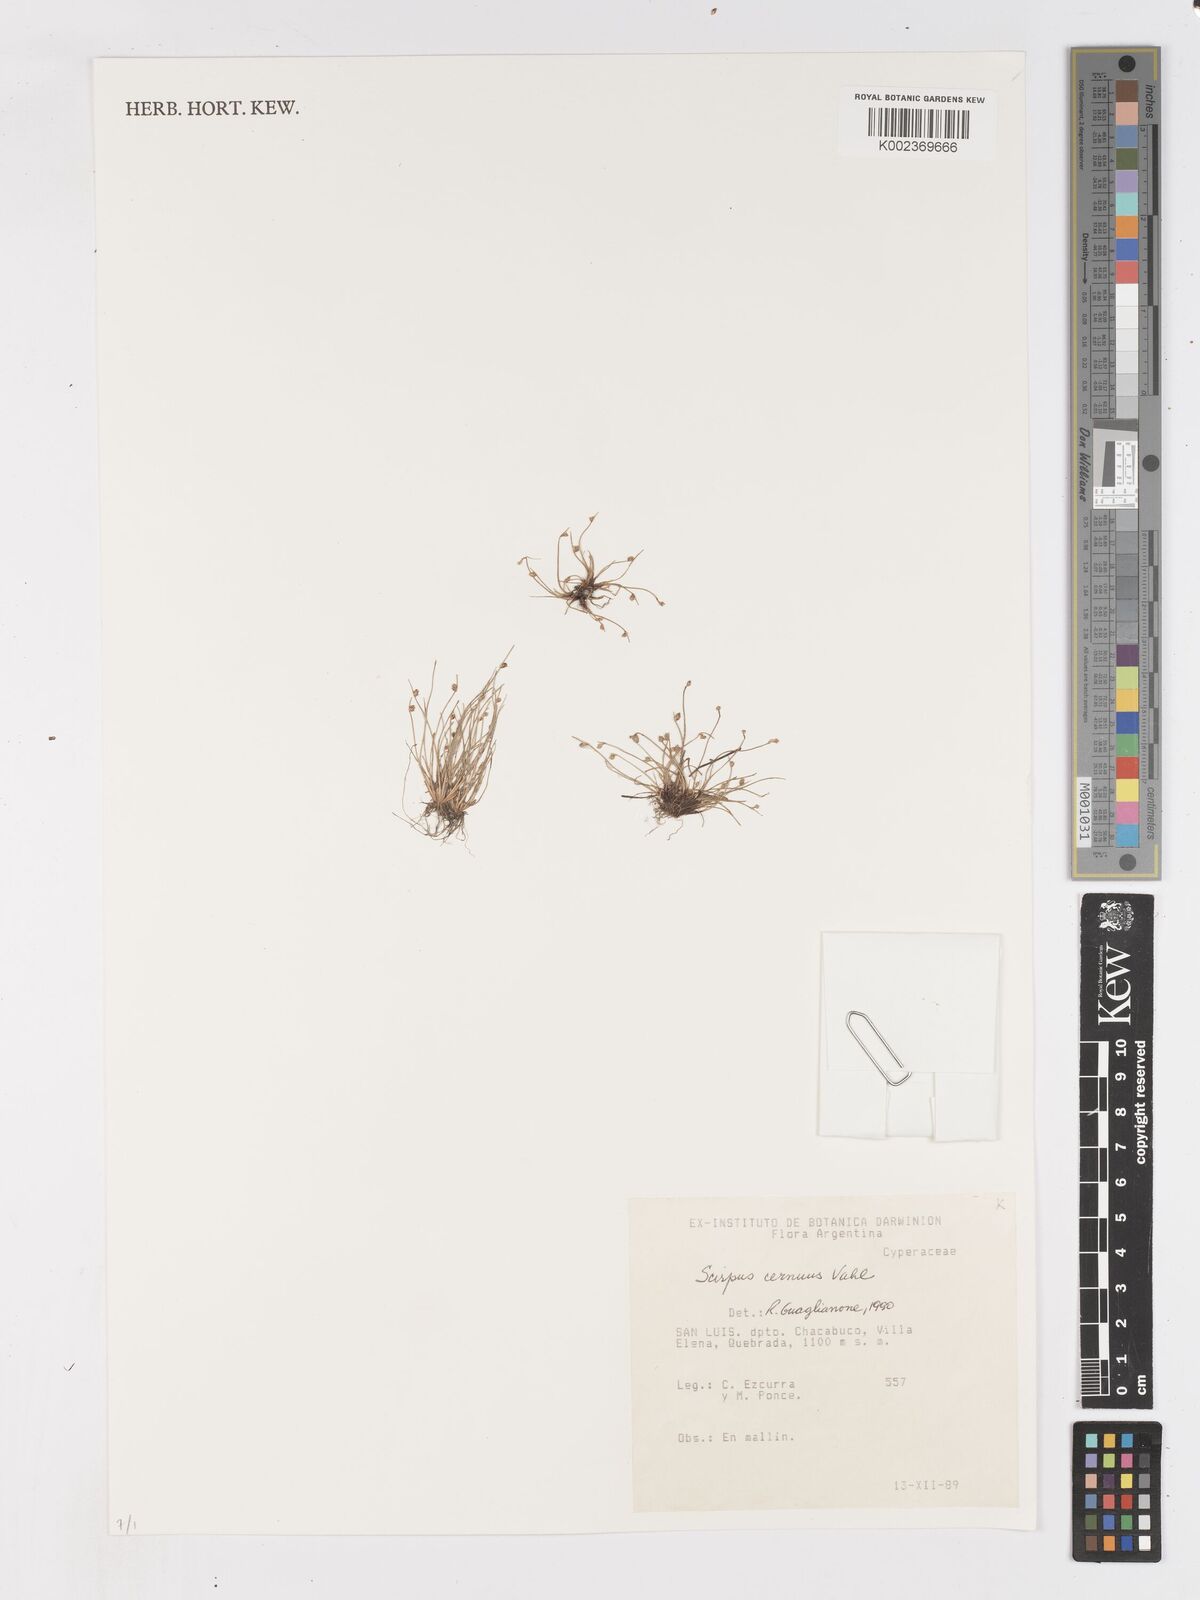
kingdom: Plantae
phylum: Tracheophyta
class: Liliopsida
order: Poales
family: Cyperaceae
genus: Isolepis
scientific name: Isolepis cernua
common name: Slender club-rush
